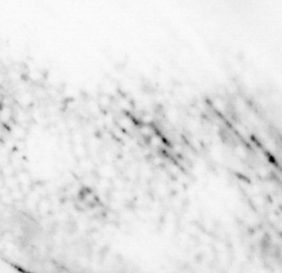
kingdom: Animalia
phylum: Chordata
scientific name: Chordata
